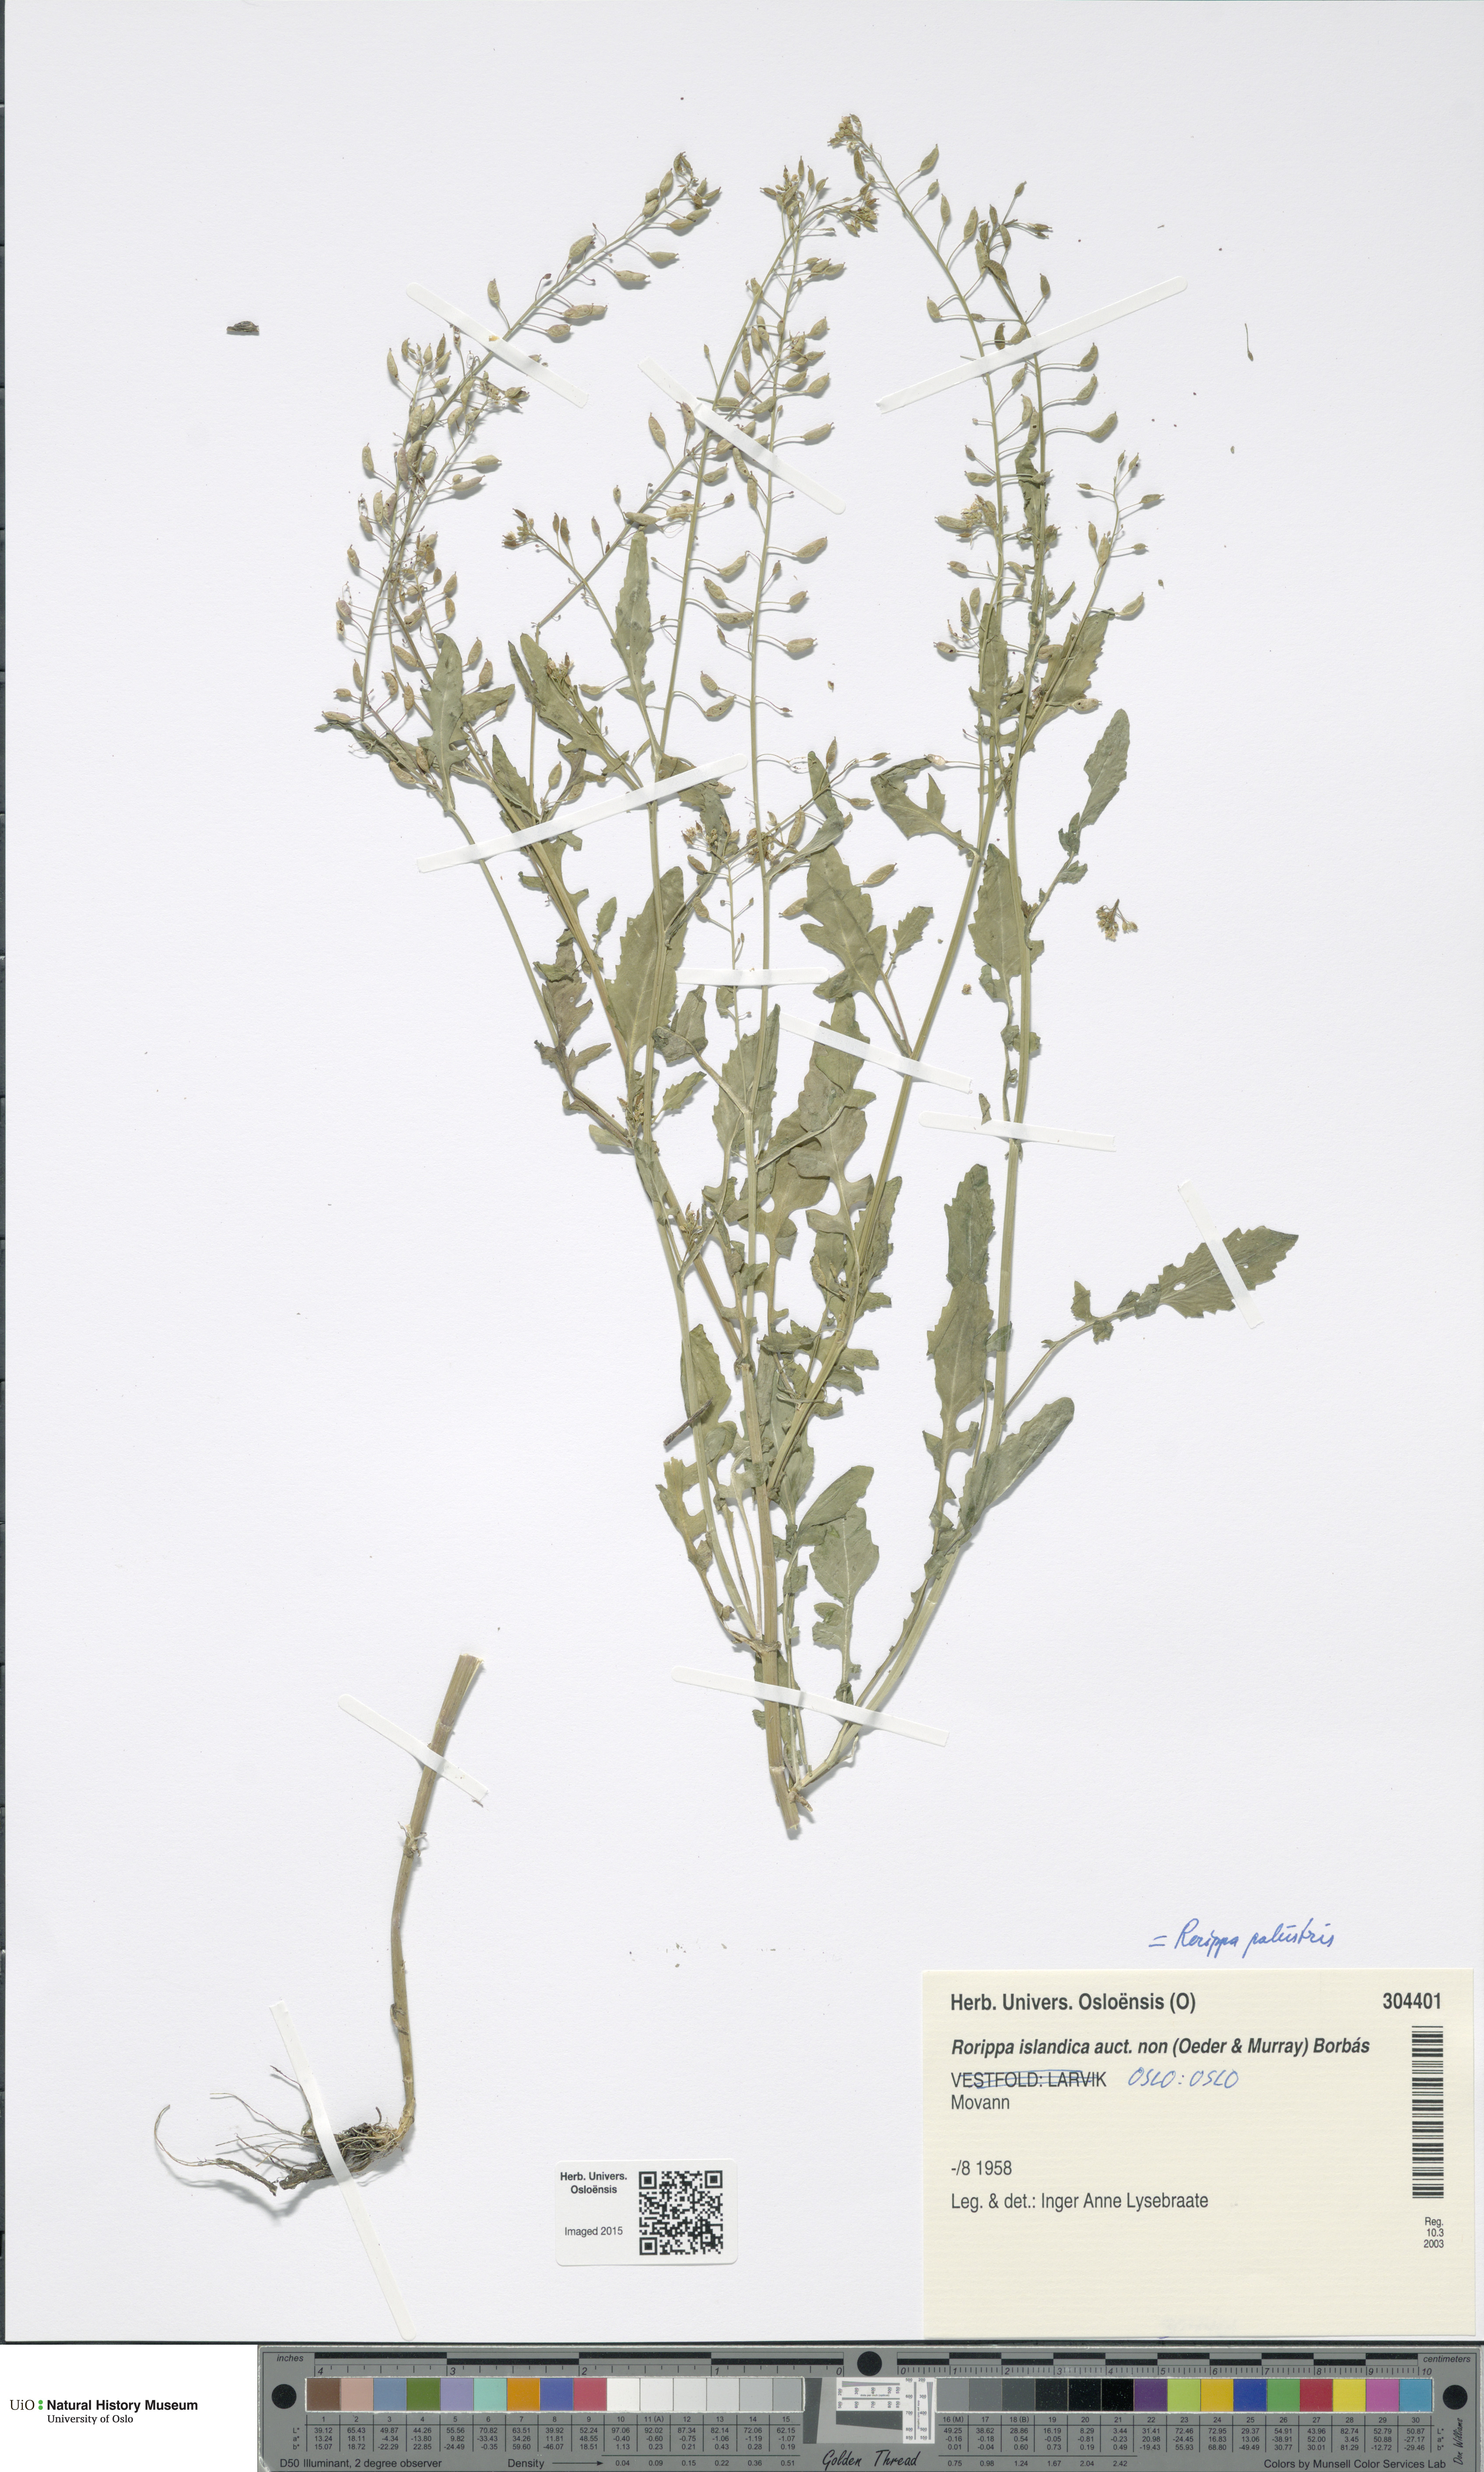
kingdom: Plantae
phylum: Tracheophyta
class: Magnoliopsida
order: Brassicales
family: Brassicaceae
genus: Rorippa
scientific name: Rorippa palustris
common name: Marsh yellow-cress
